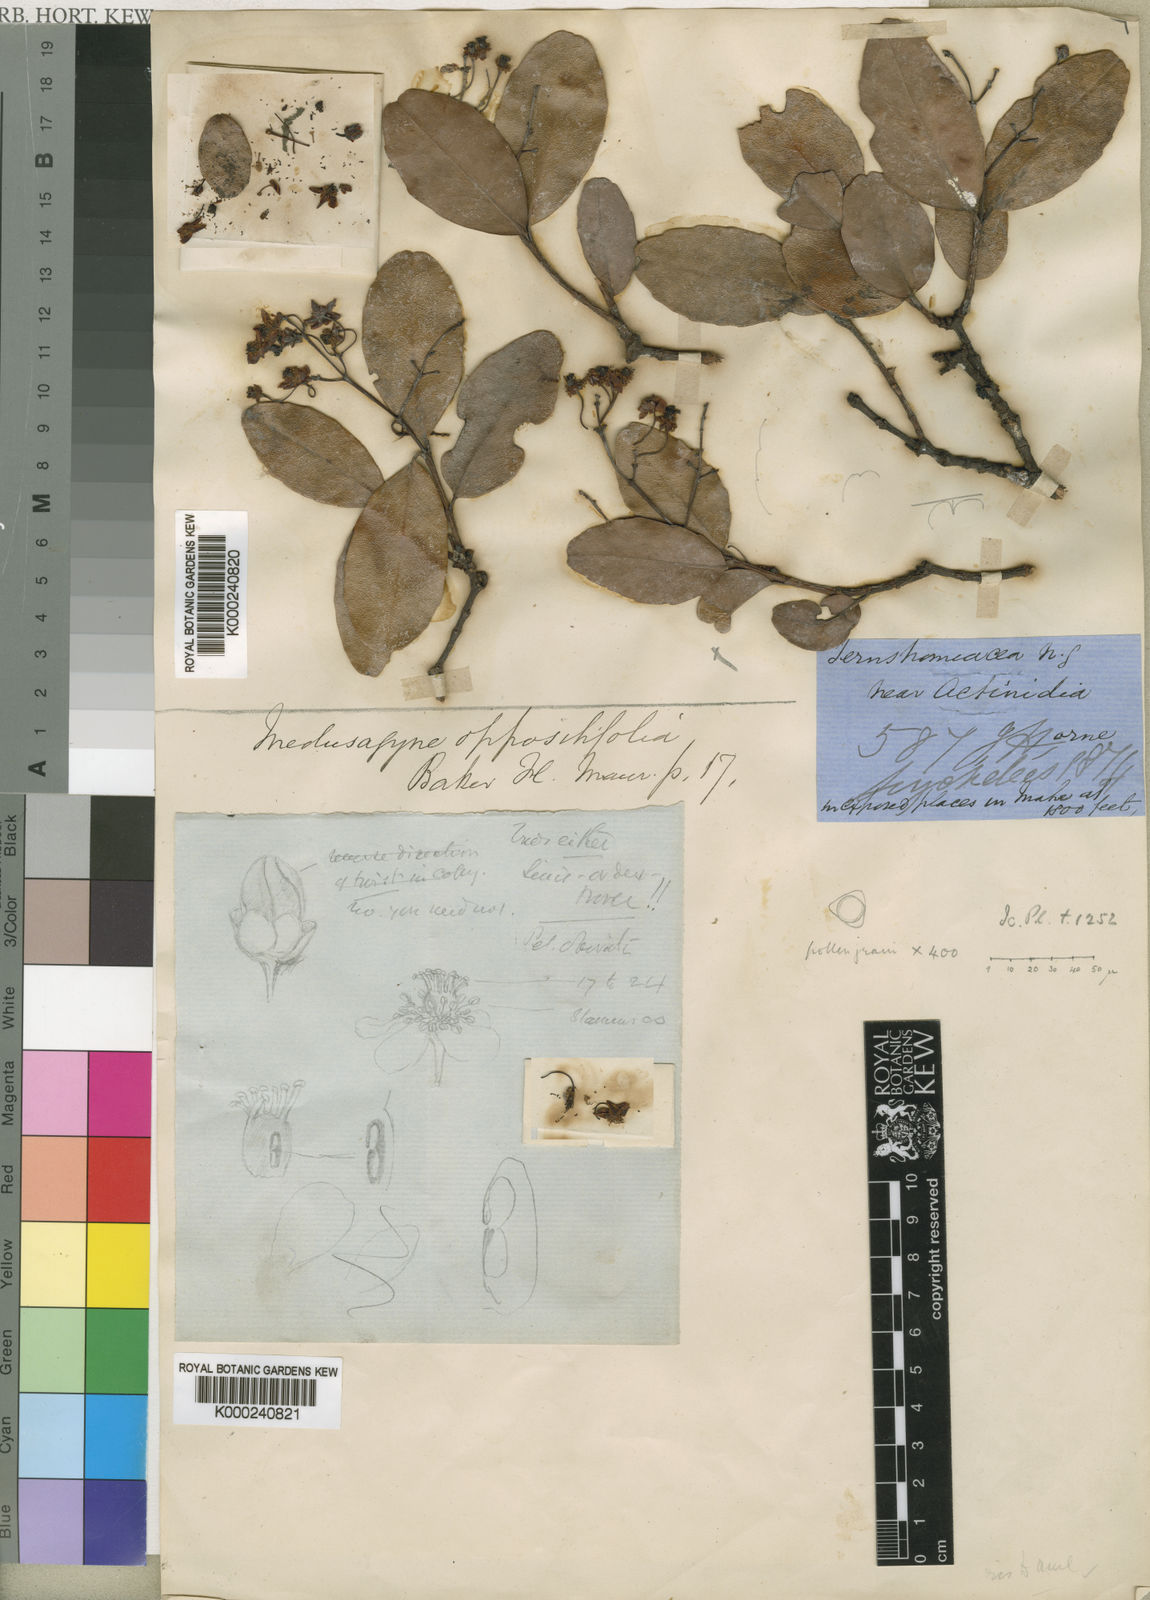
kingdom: Plantae
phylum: Tracheophyta
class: Magnoliopsida
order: Malpighiales
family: Medusagynaceae
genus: Medusagyne
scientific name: Medusagyne oppositifolia
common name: Jellyfish tree
